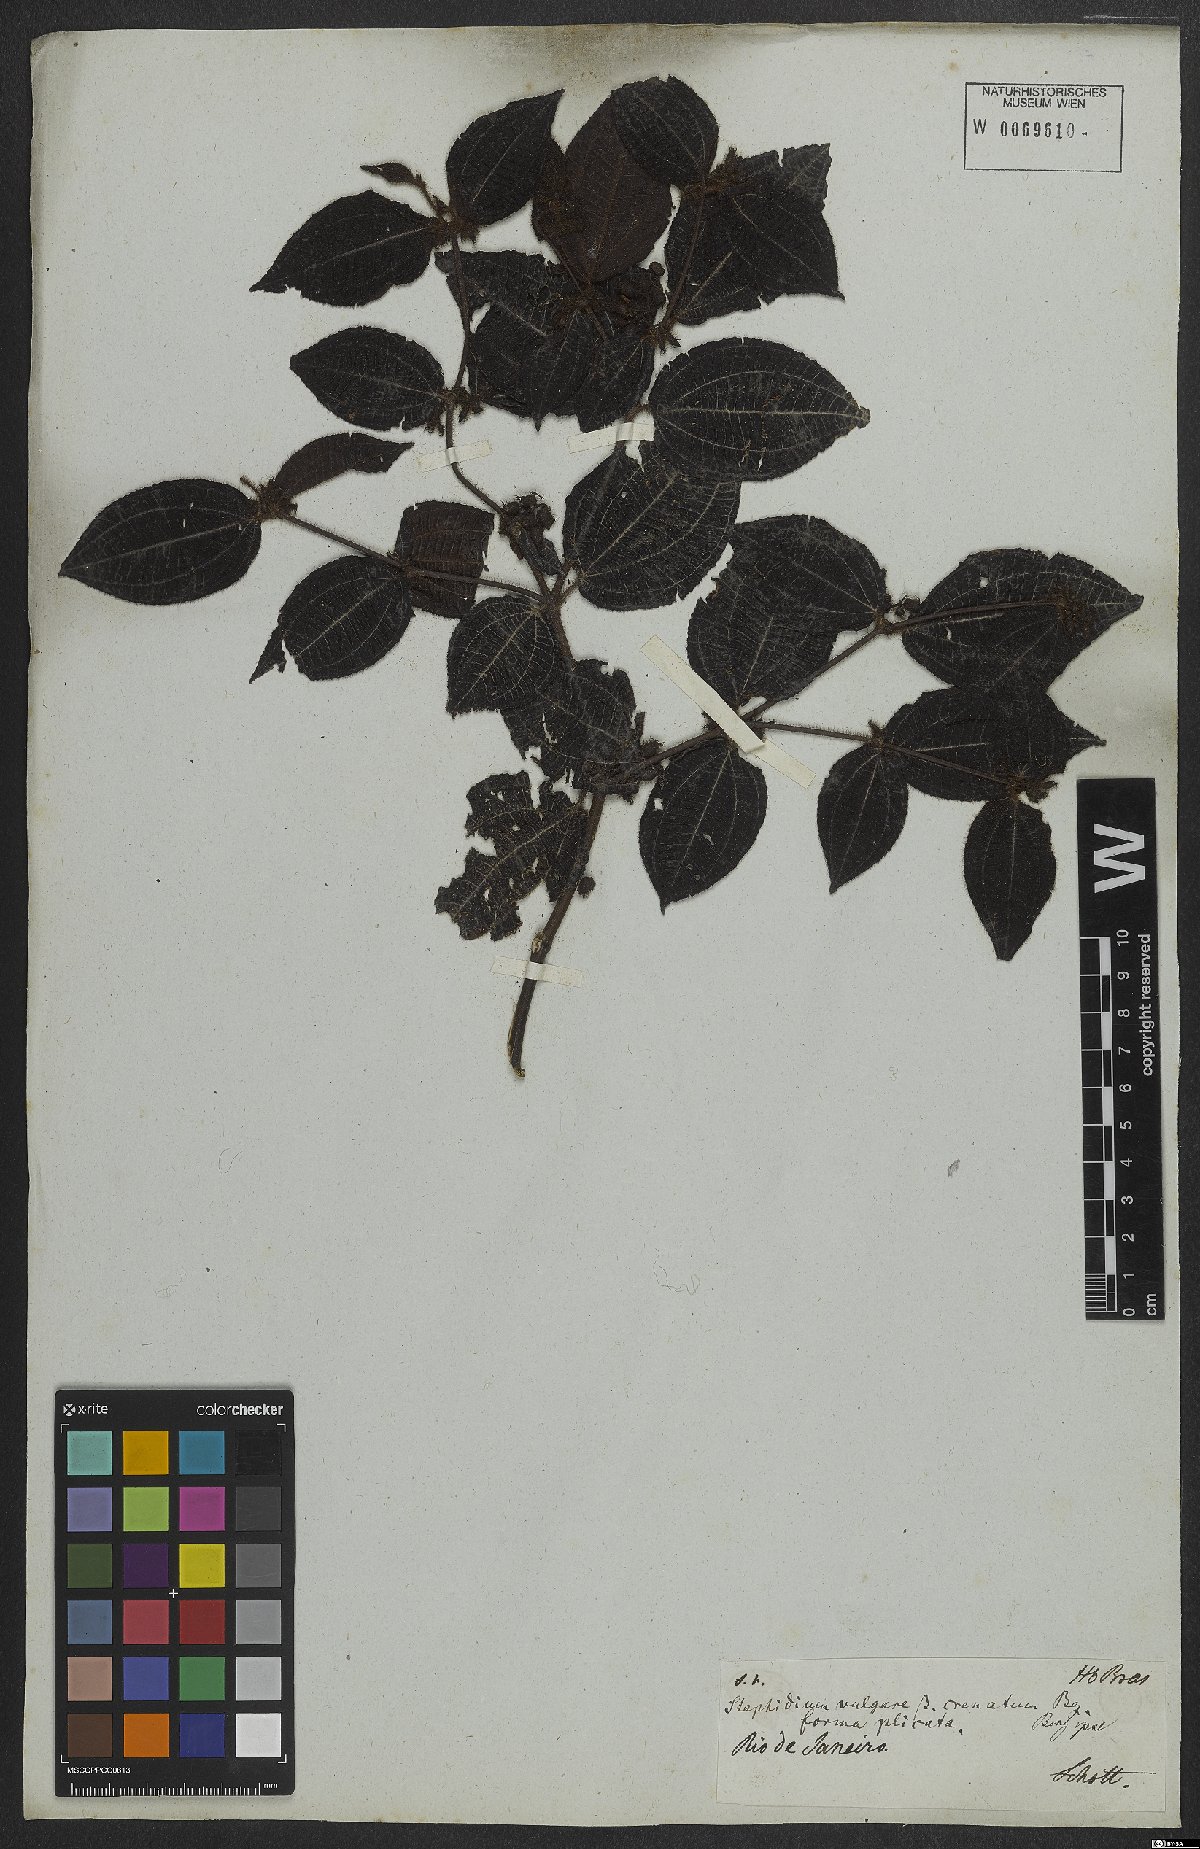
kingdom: Plantae
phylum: Tracheophyta
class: Magnoliopsida
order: Myrtales
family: Melastomataceae
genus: Miconia
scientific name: Miconia crenata
